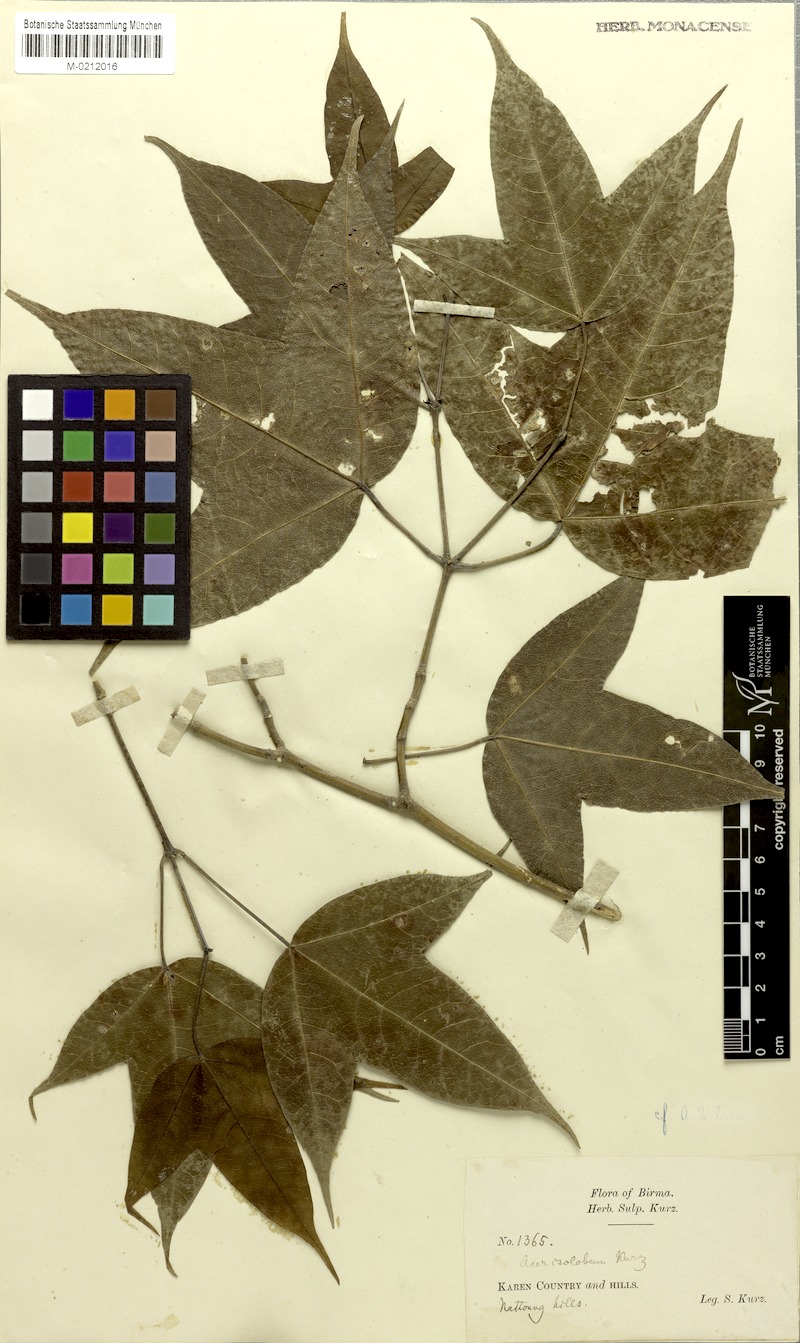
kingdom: Plantae
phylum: Tracheophyta
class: Magnoliopsida
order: Sapindales
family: Sapindaceae
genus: Acer
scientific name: Acer calcaratum
